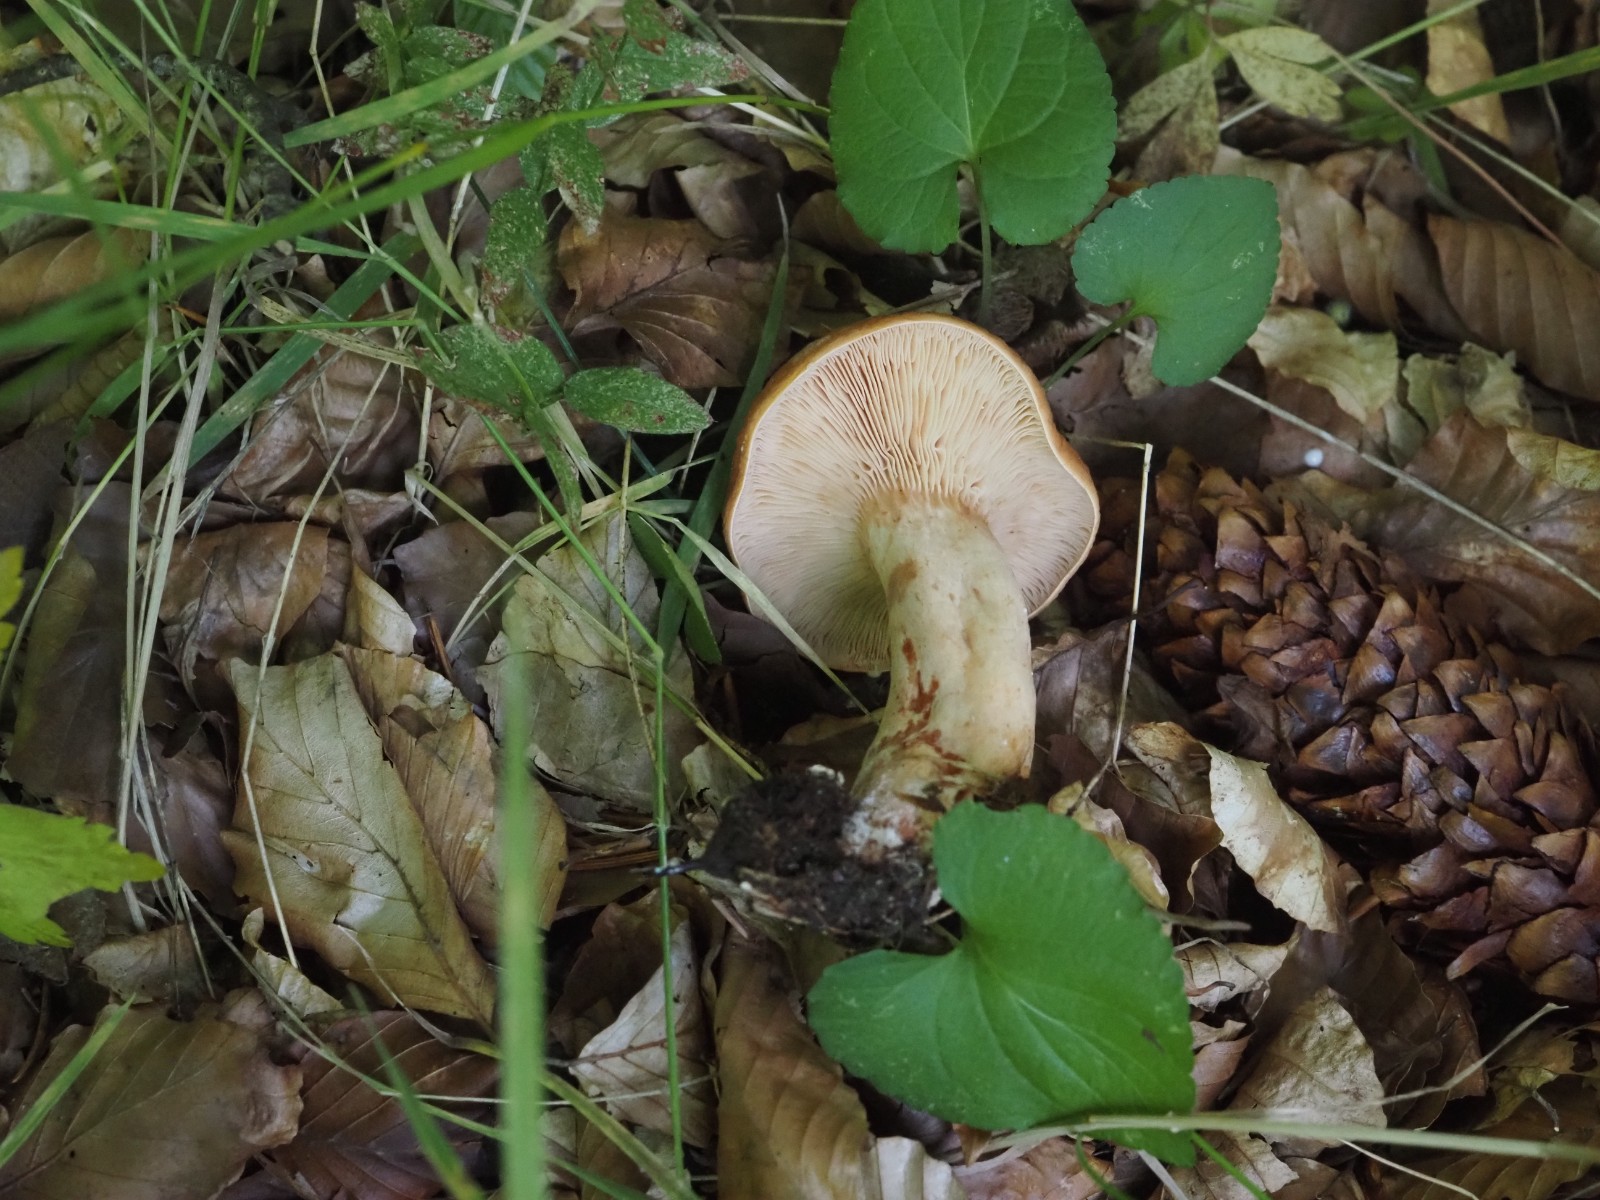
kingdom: Fungi
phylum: Basidiomycota
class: Agaricomycetes
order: Russulales
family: Russulaceae
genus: Lactifluus
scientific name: Lactifluus volemus
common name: spiselig mælkehat
